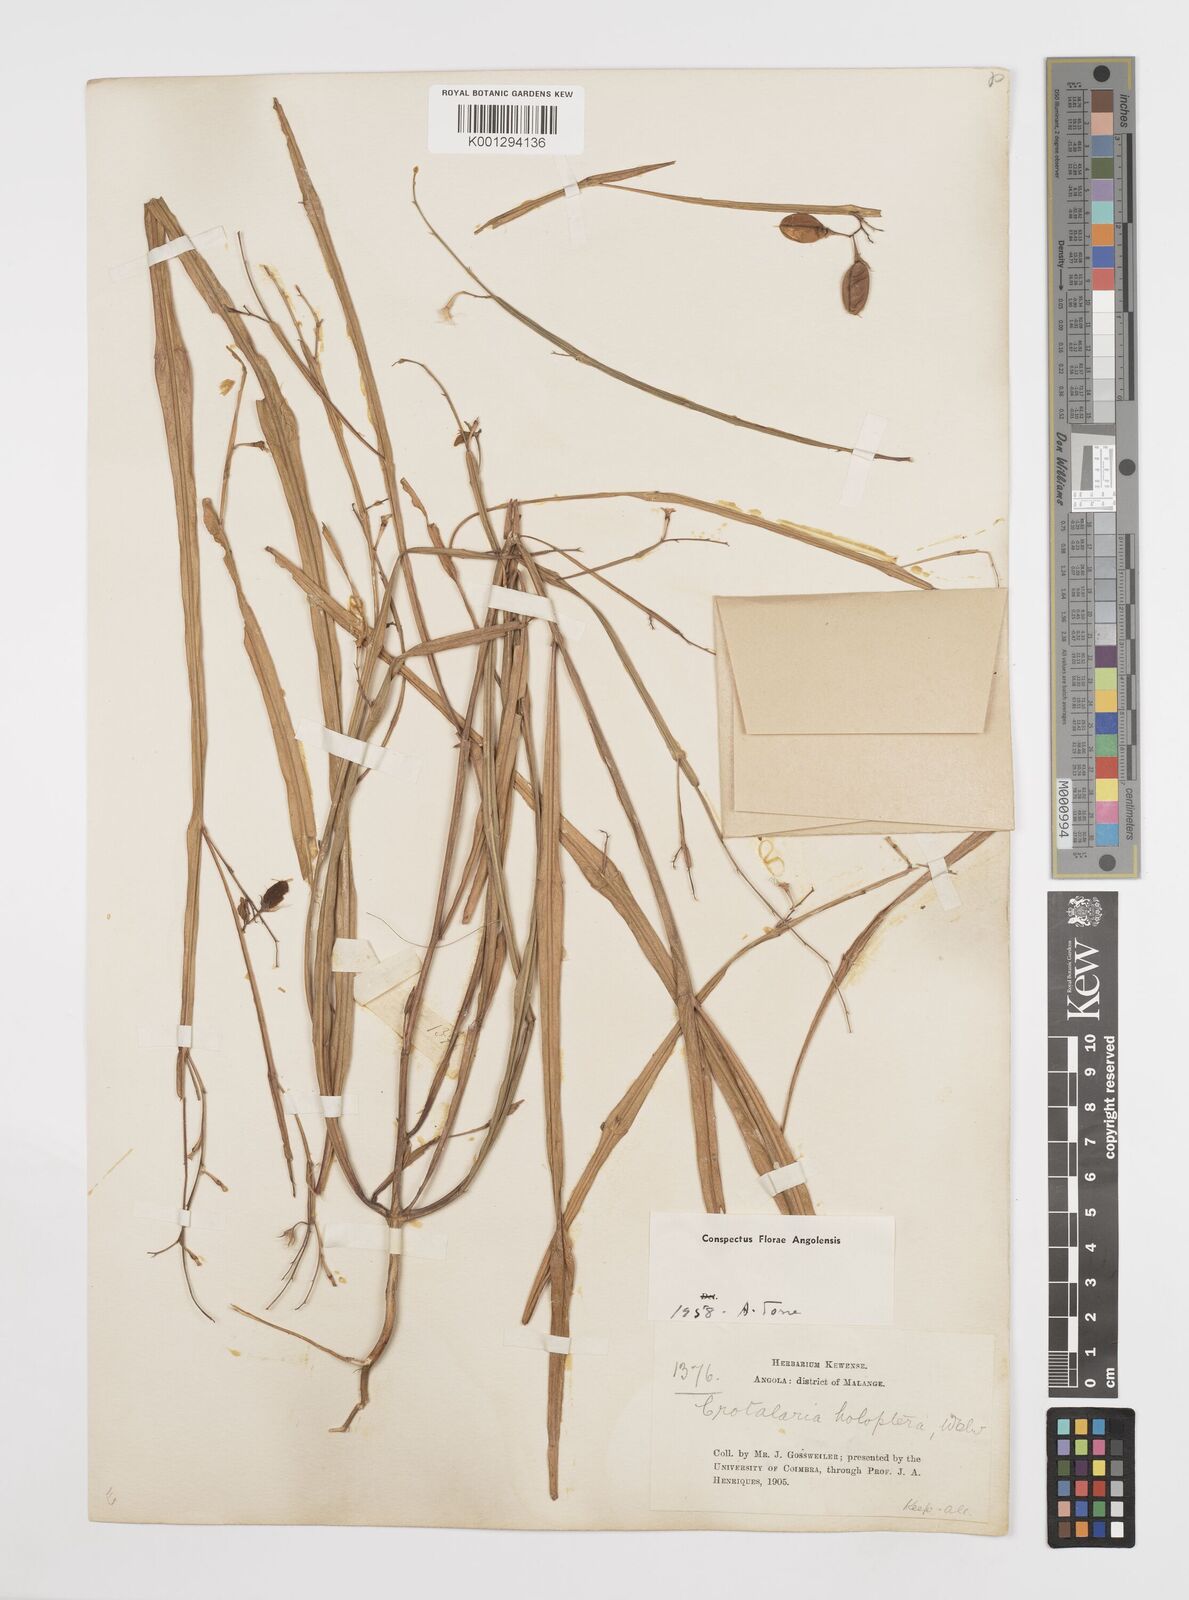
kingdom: Plantae
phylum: Tracheophyta
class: Magnoliopsida
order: Fabales
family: Fabaceae
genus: Crotalaria
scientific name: Crotalaria holoptera
